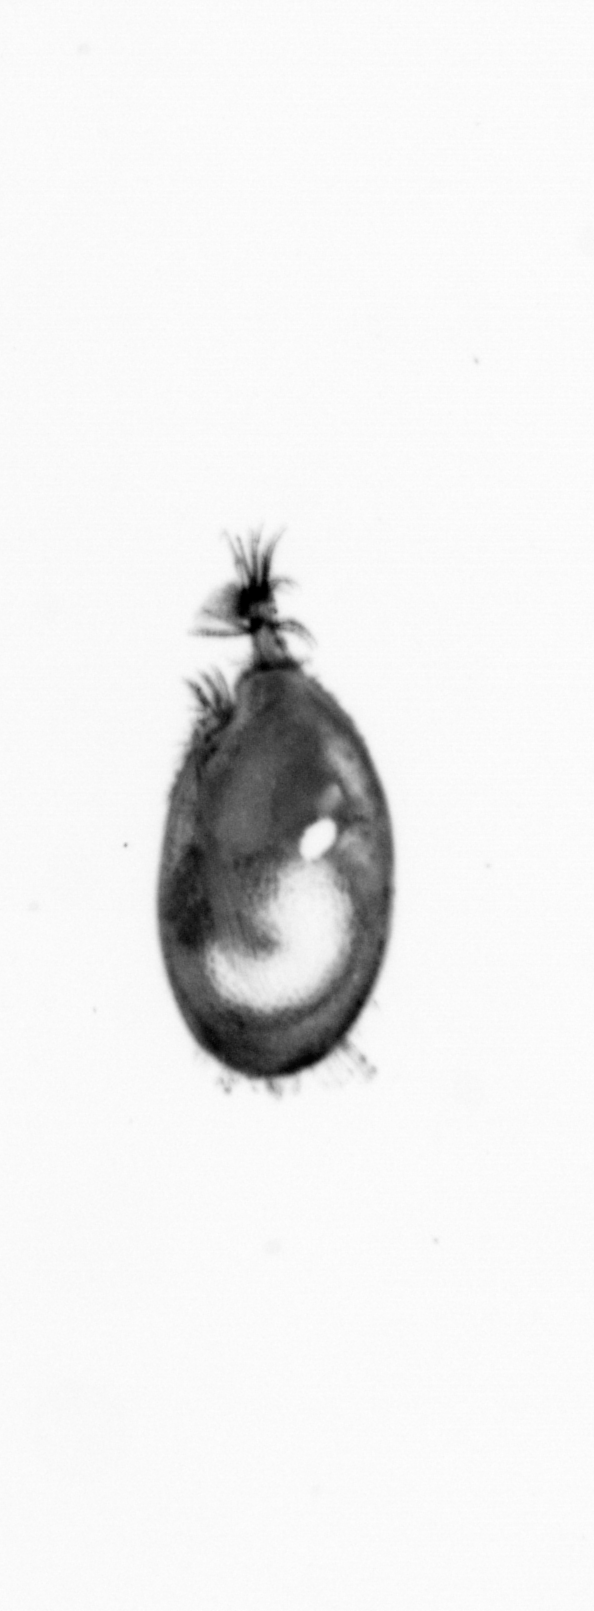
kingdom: Animalia
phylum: Chordata
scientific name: Chordata
